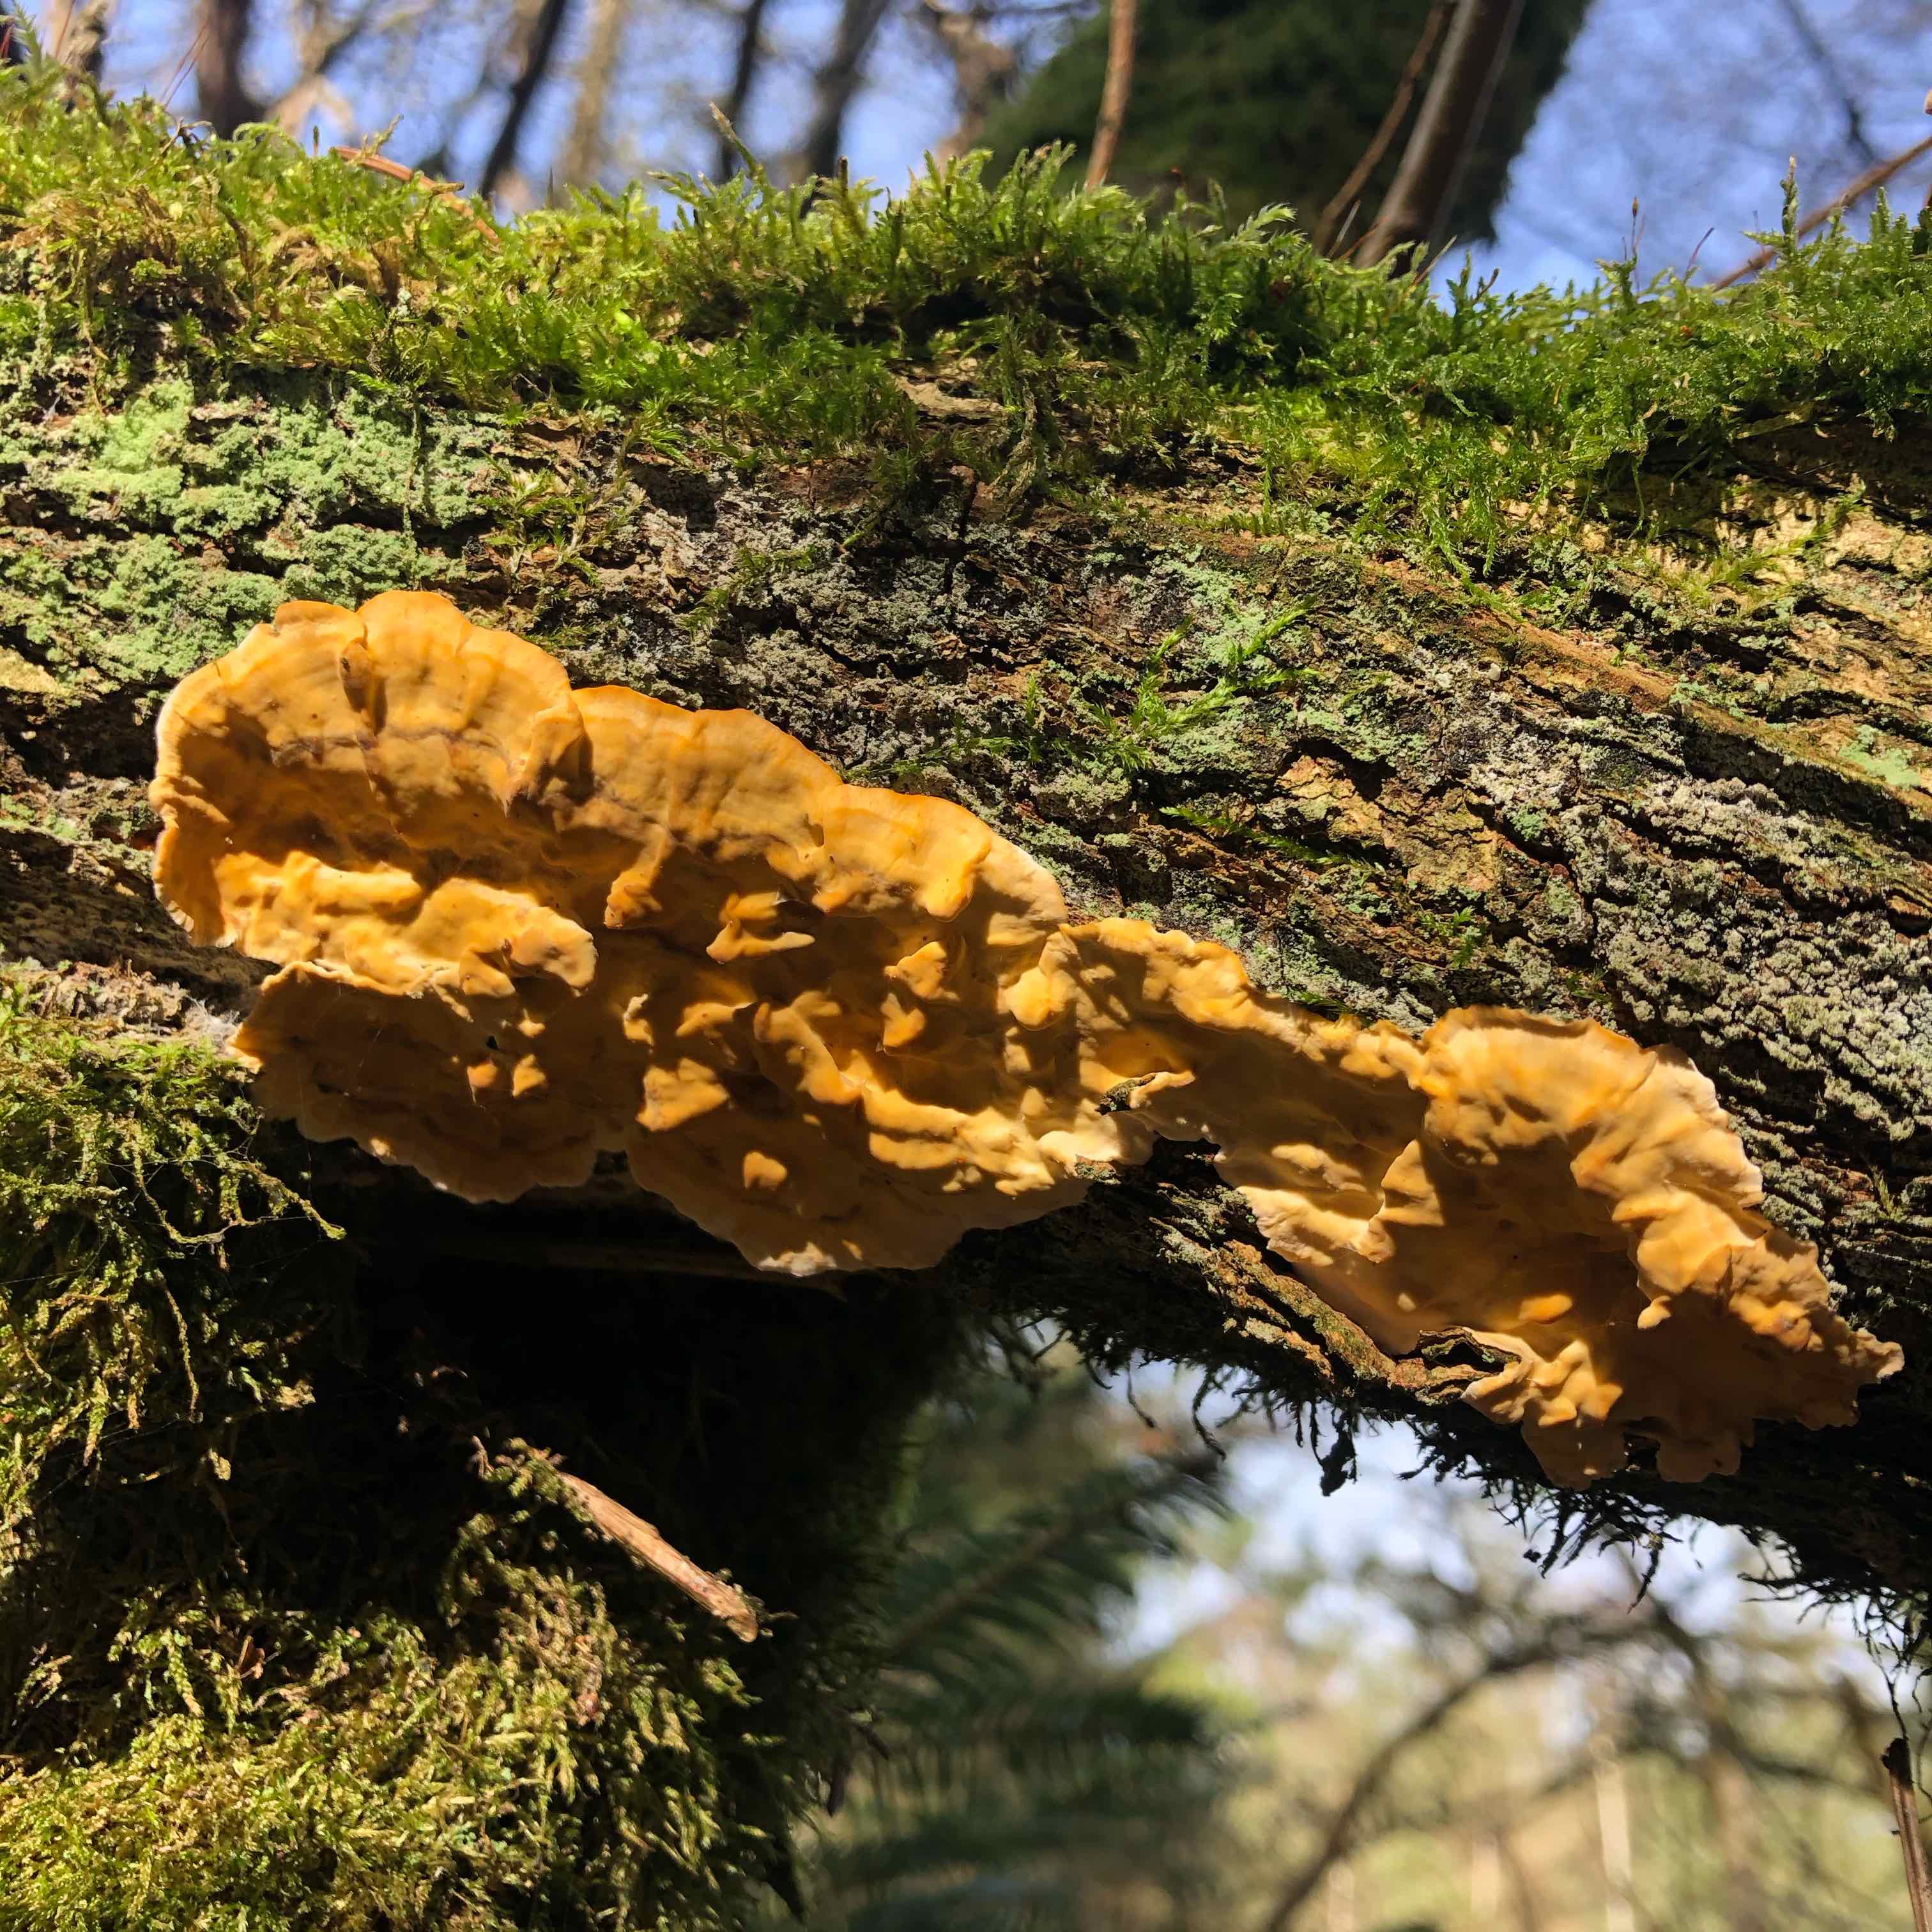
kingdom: Fungi
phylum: Basidiomycota
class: Agaricomycetes
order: Russulales
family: Stereaceae
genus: Stereum
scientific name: Stereum hirsutum
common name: håret lædersvamp
